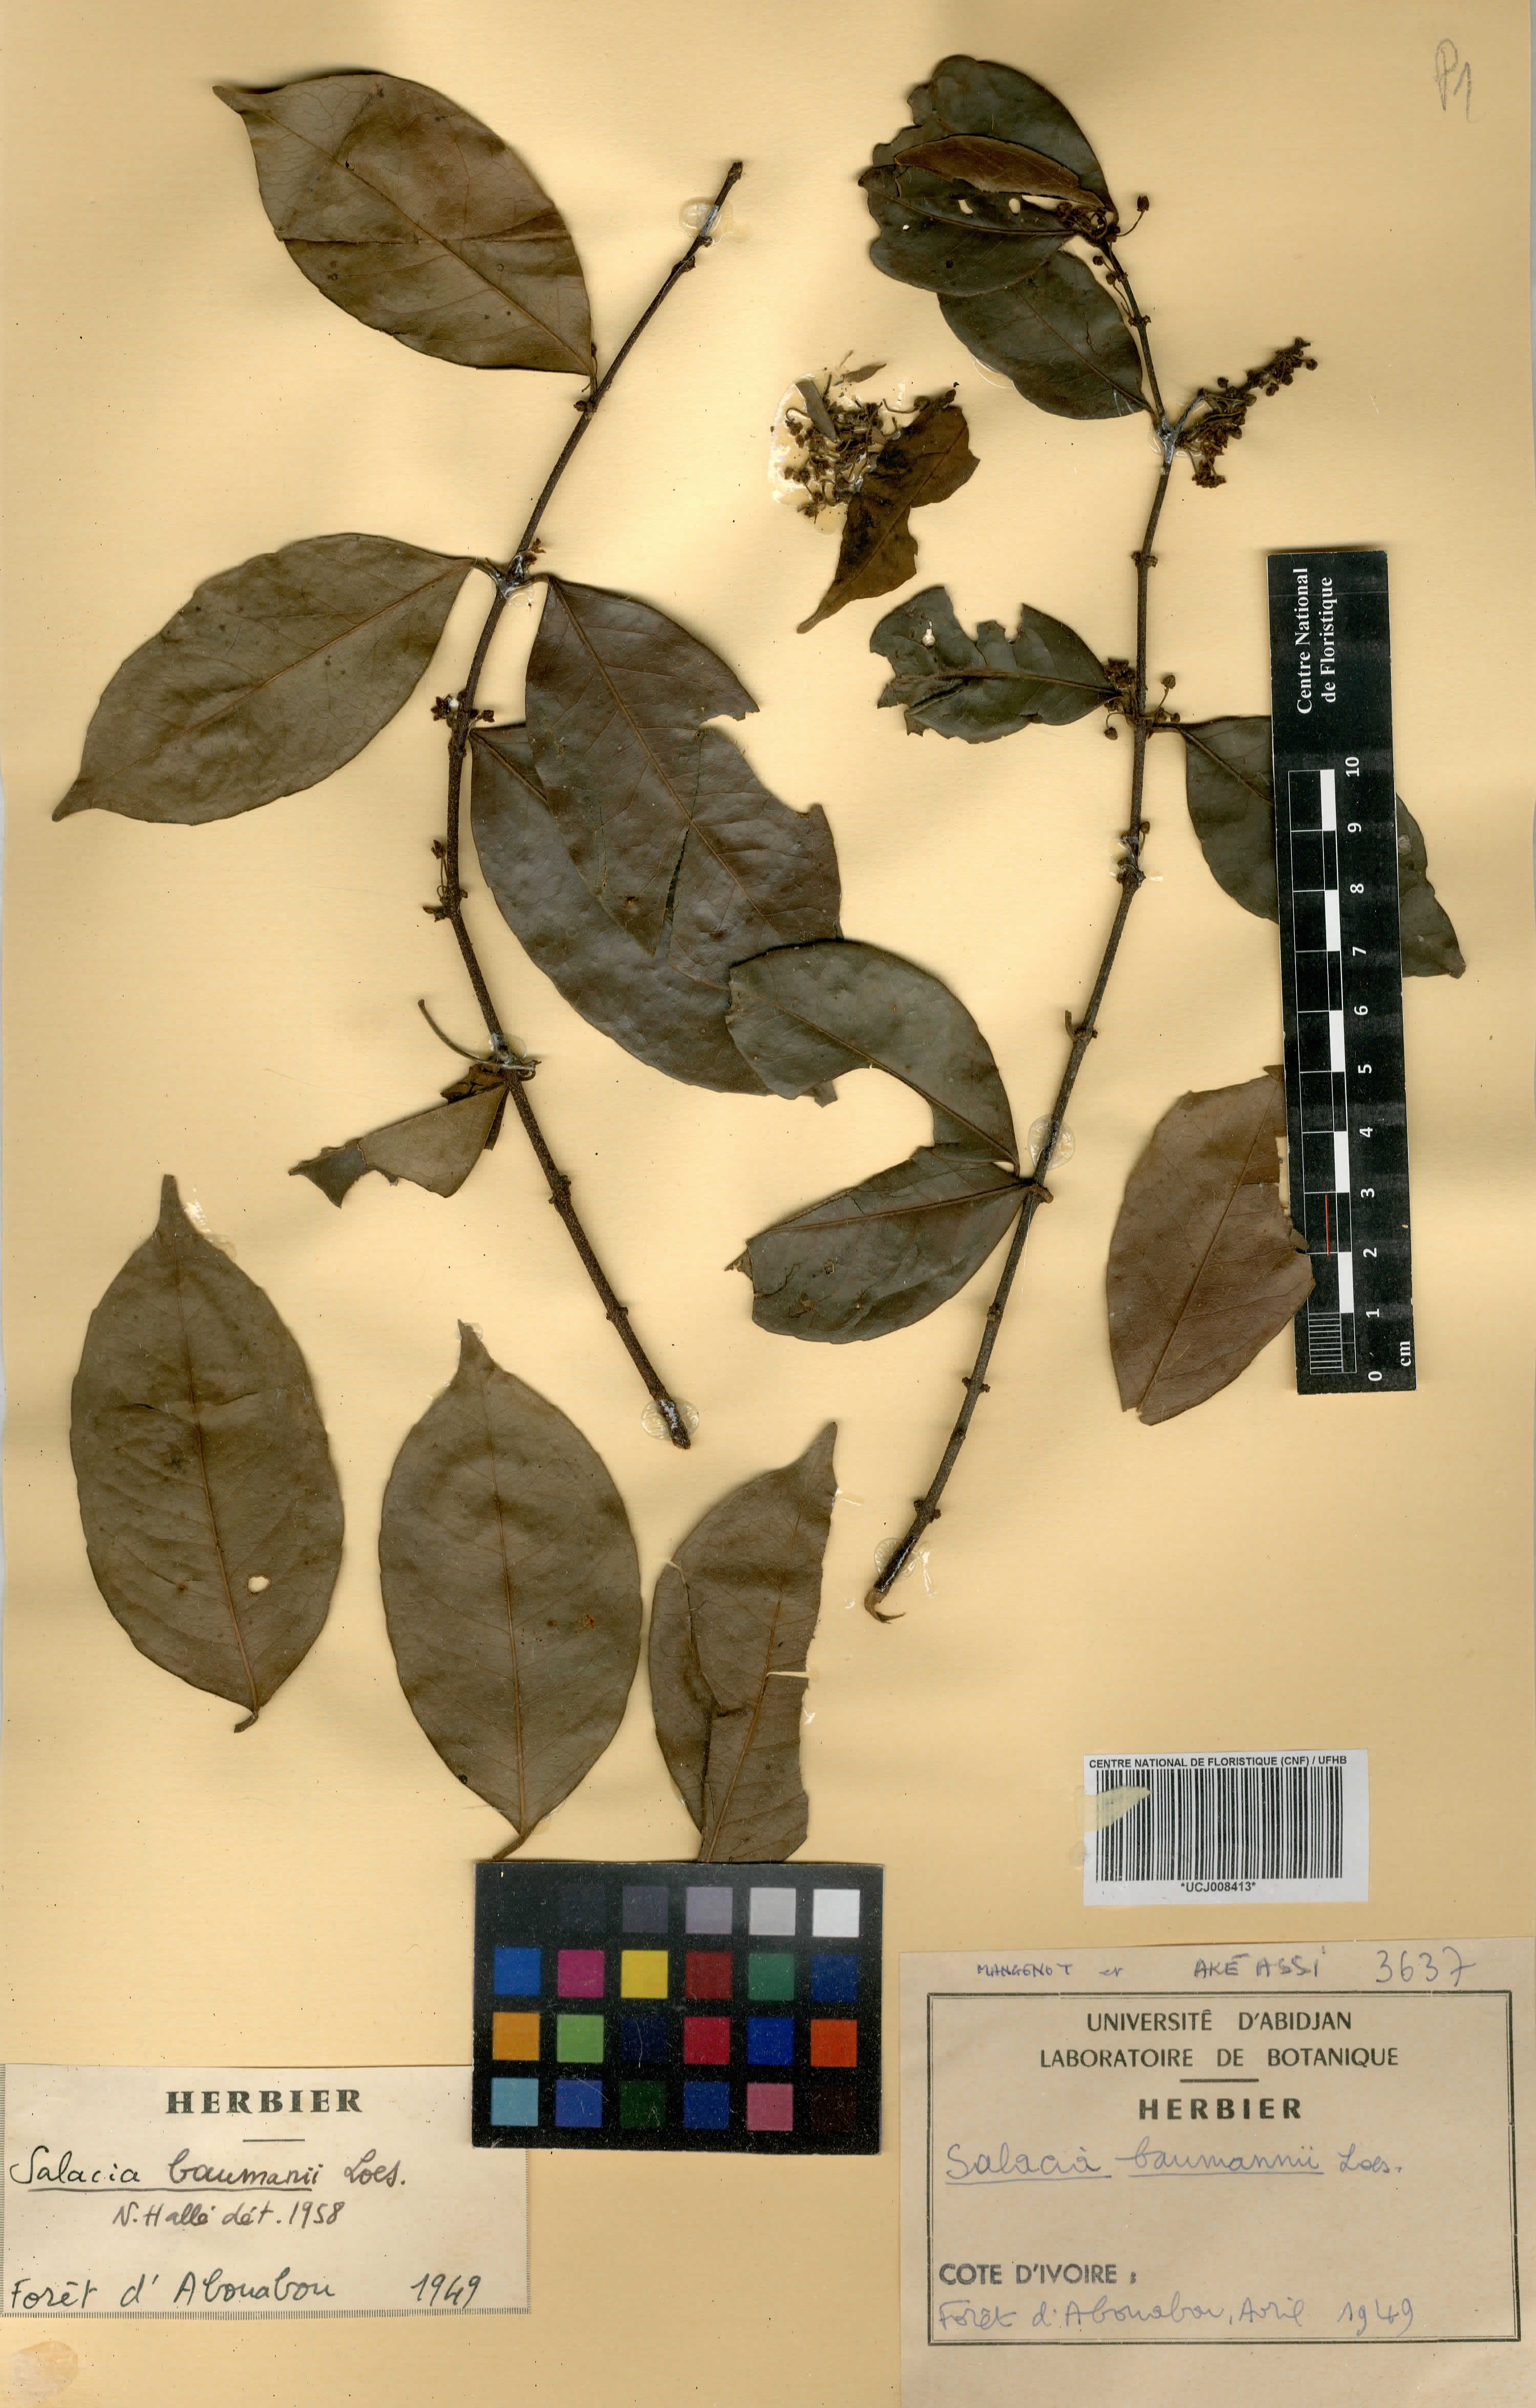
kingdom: Plantae
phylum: Tracheophyta
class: Magnoliopsida
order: Celastrales
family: Celastraceae
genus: Salacia
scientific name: Salacia leptoclada
